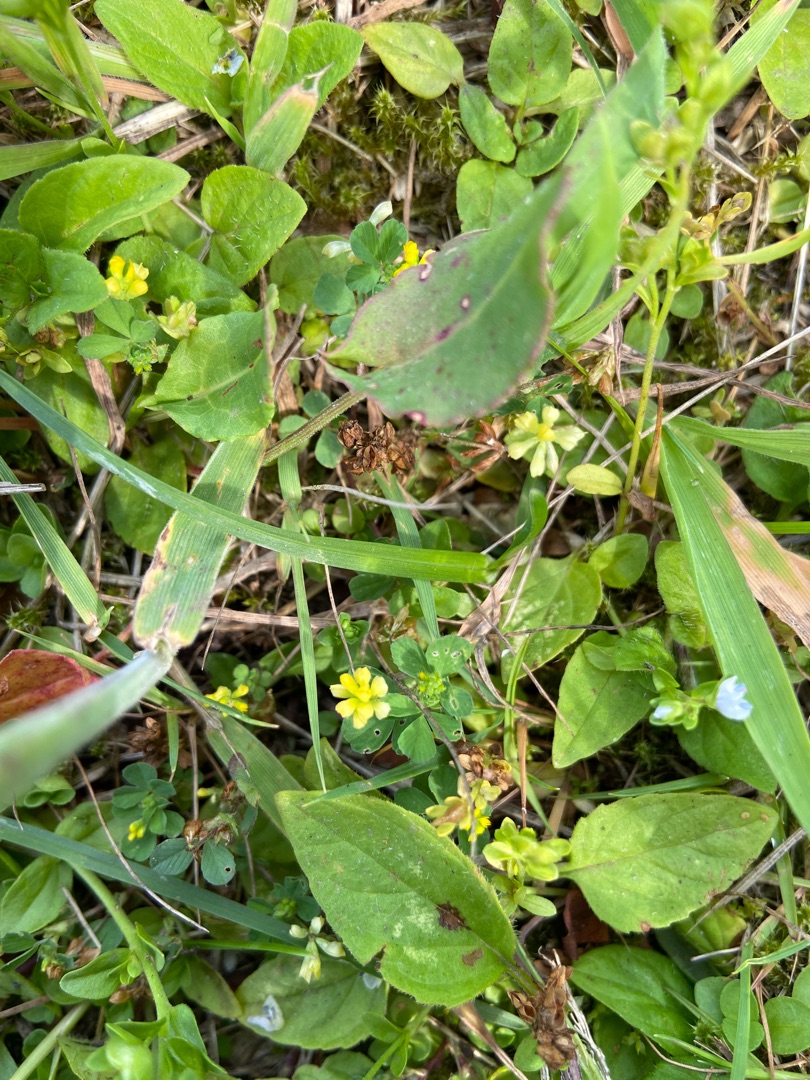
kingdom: Plantae
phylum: Tracheophyta
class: Magnoliopsida
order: Fabales
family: Fabaceae
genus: Trifolium
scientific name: Trifolium dubium
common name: Fin kløver
